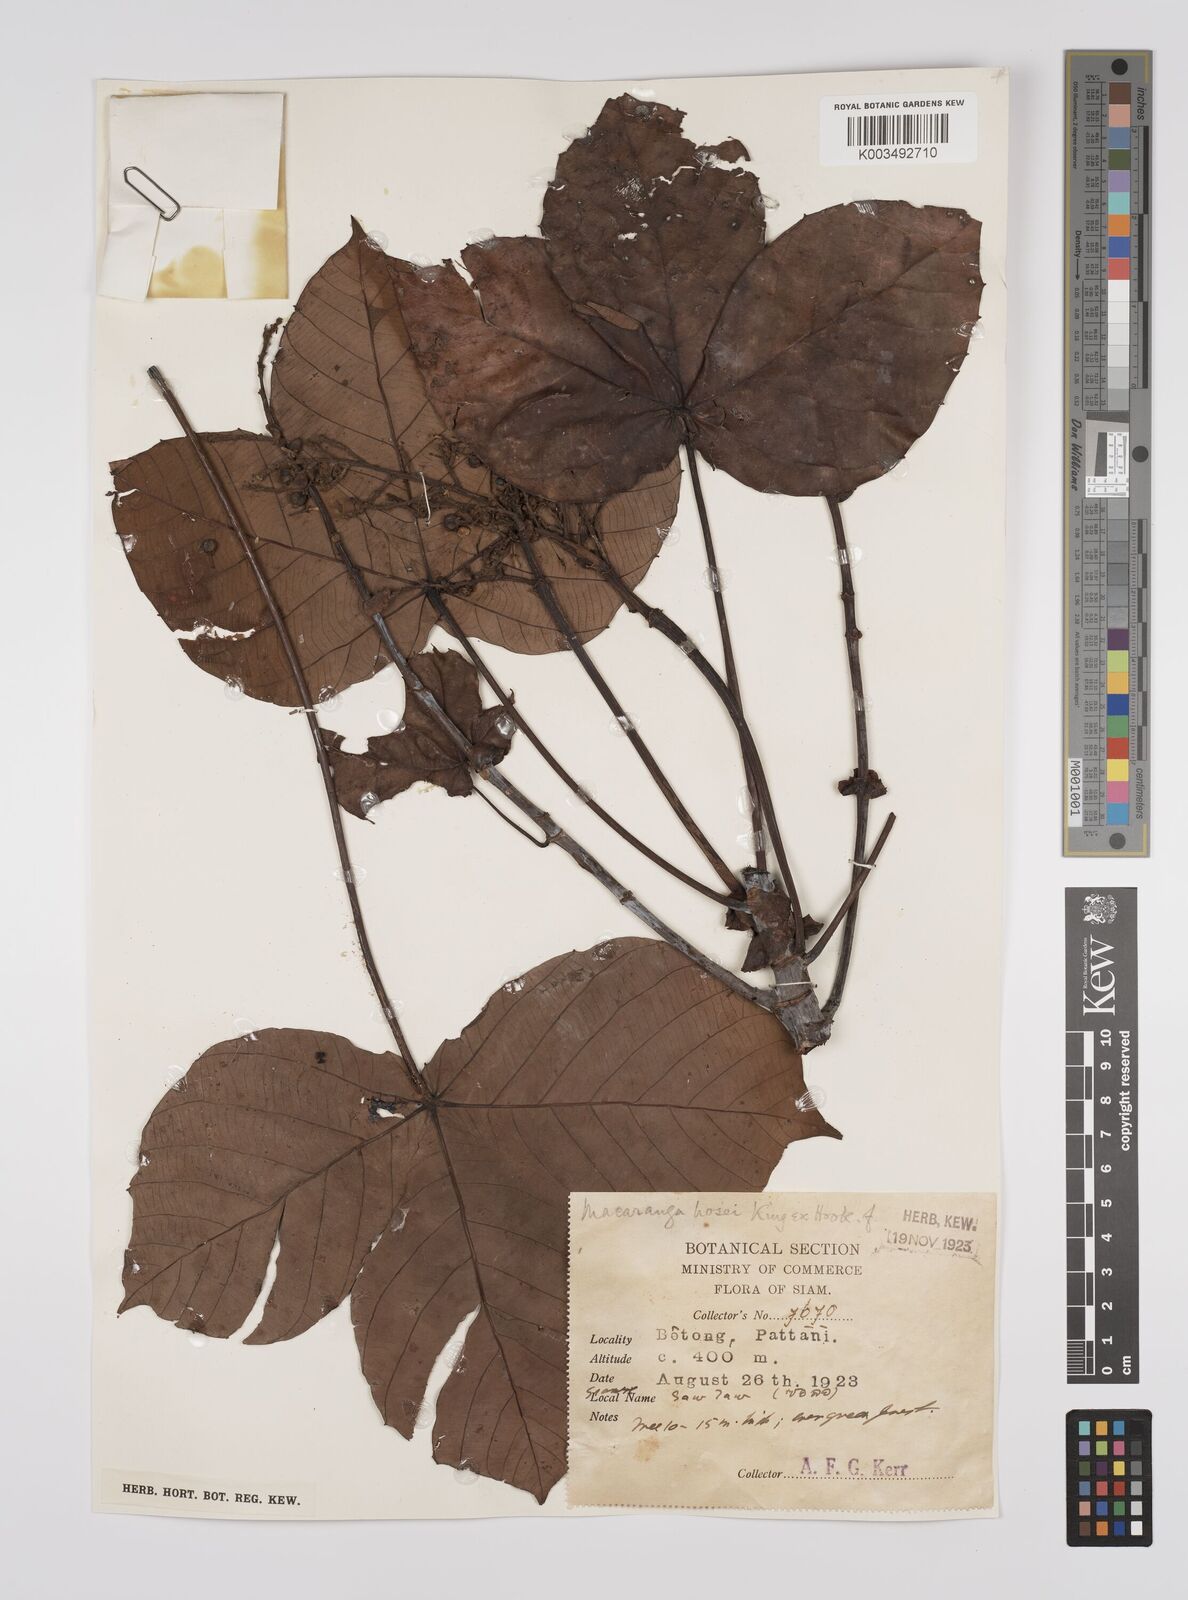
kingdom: Plantae
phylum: Tracheophyta
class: Magnoliopsida
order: Malpighiales
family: Euphorbiaceae
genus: Macaranga
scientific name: Macaranga hosei
